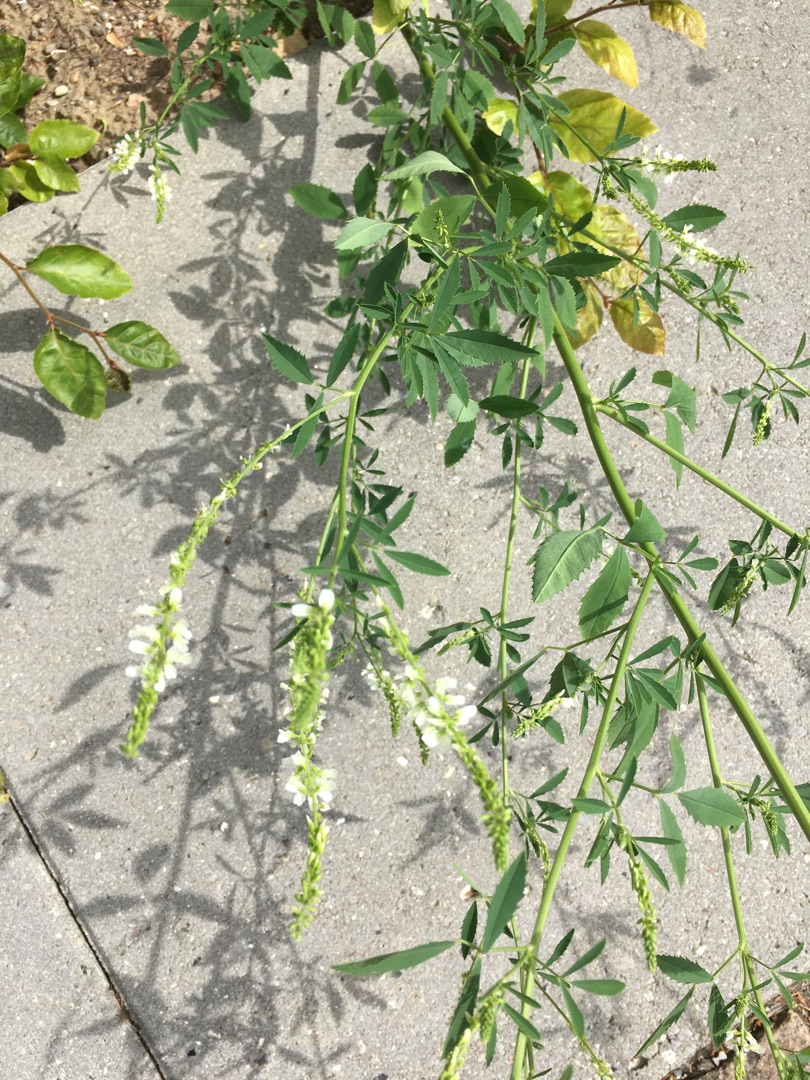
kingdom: Plantae
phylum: Tracheophyta
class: Magnoliopsida
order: Fabales
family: Fabaceae
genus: Melilotus
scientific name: Melilotus albus
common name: Hvid stenkløver
